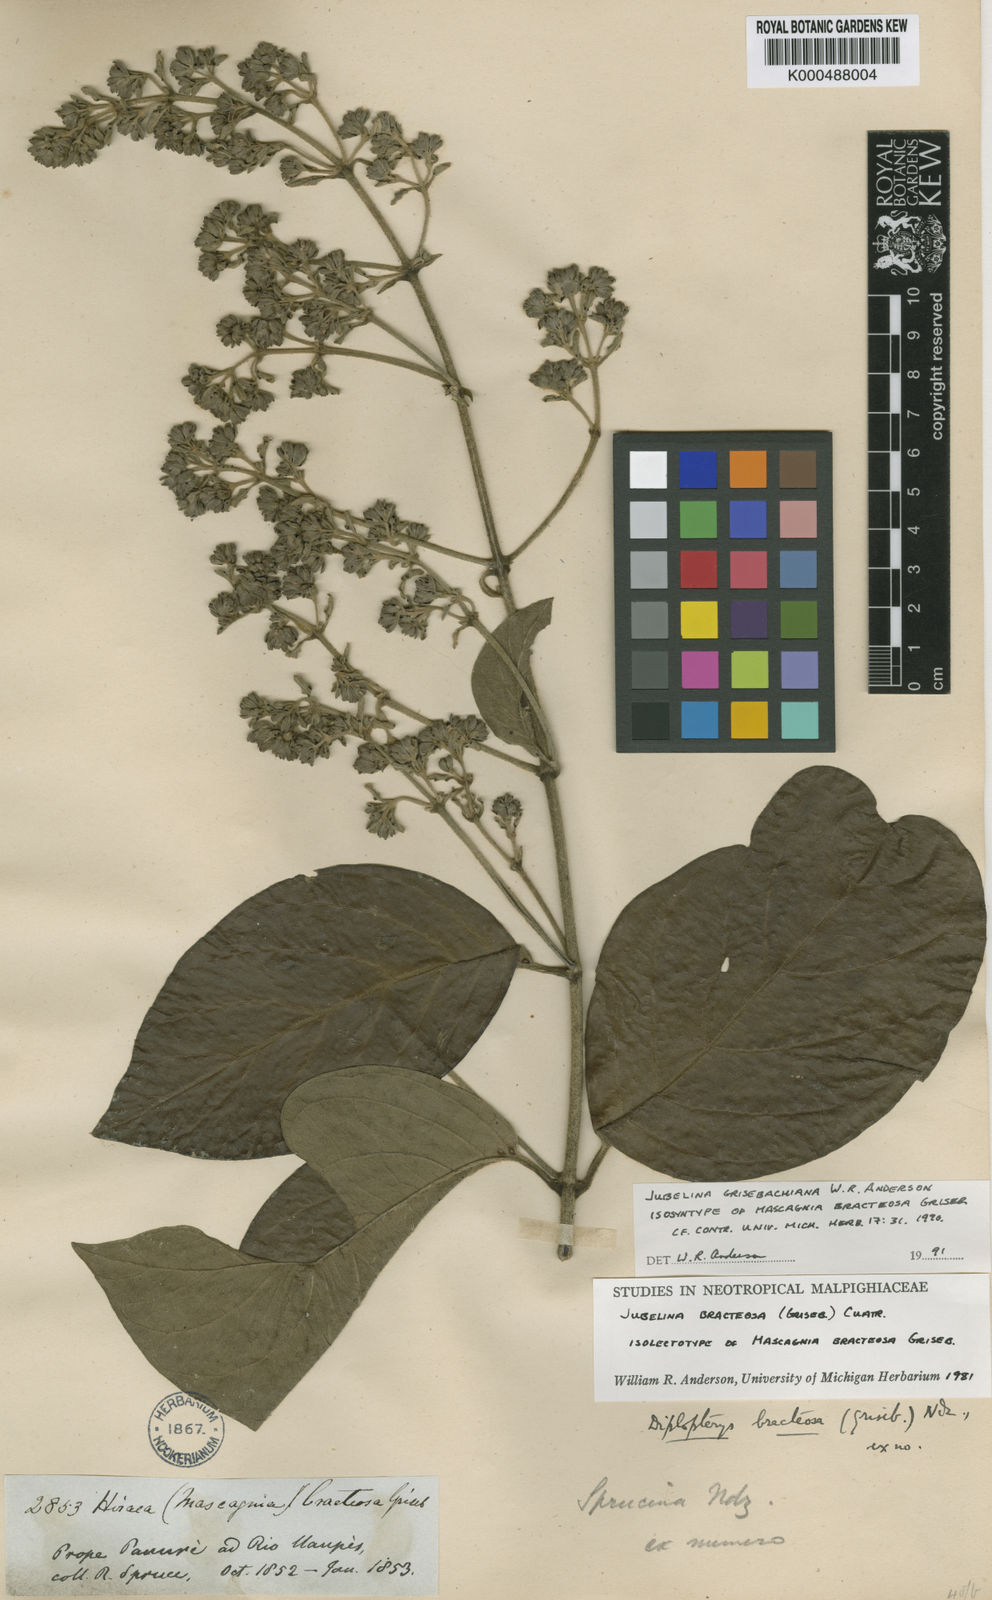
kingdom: Plantae
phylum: Tracheophyta
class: Magnoliopsida
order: Malpighiales
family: Malpighiaceae
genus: Jubelina
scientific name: Jubelina grisebachiana
